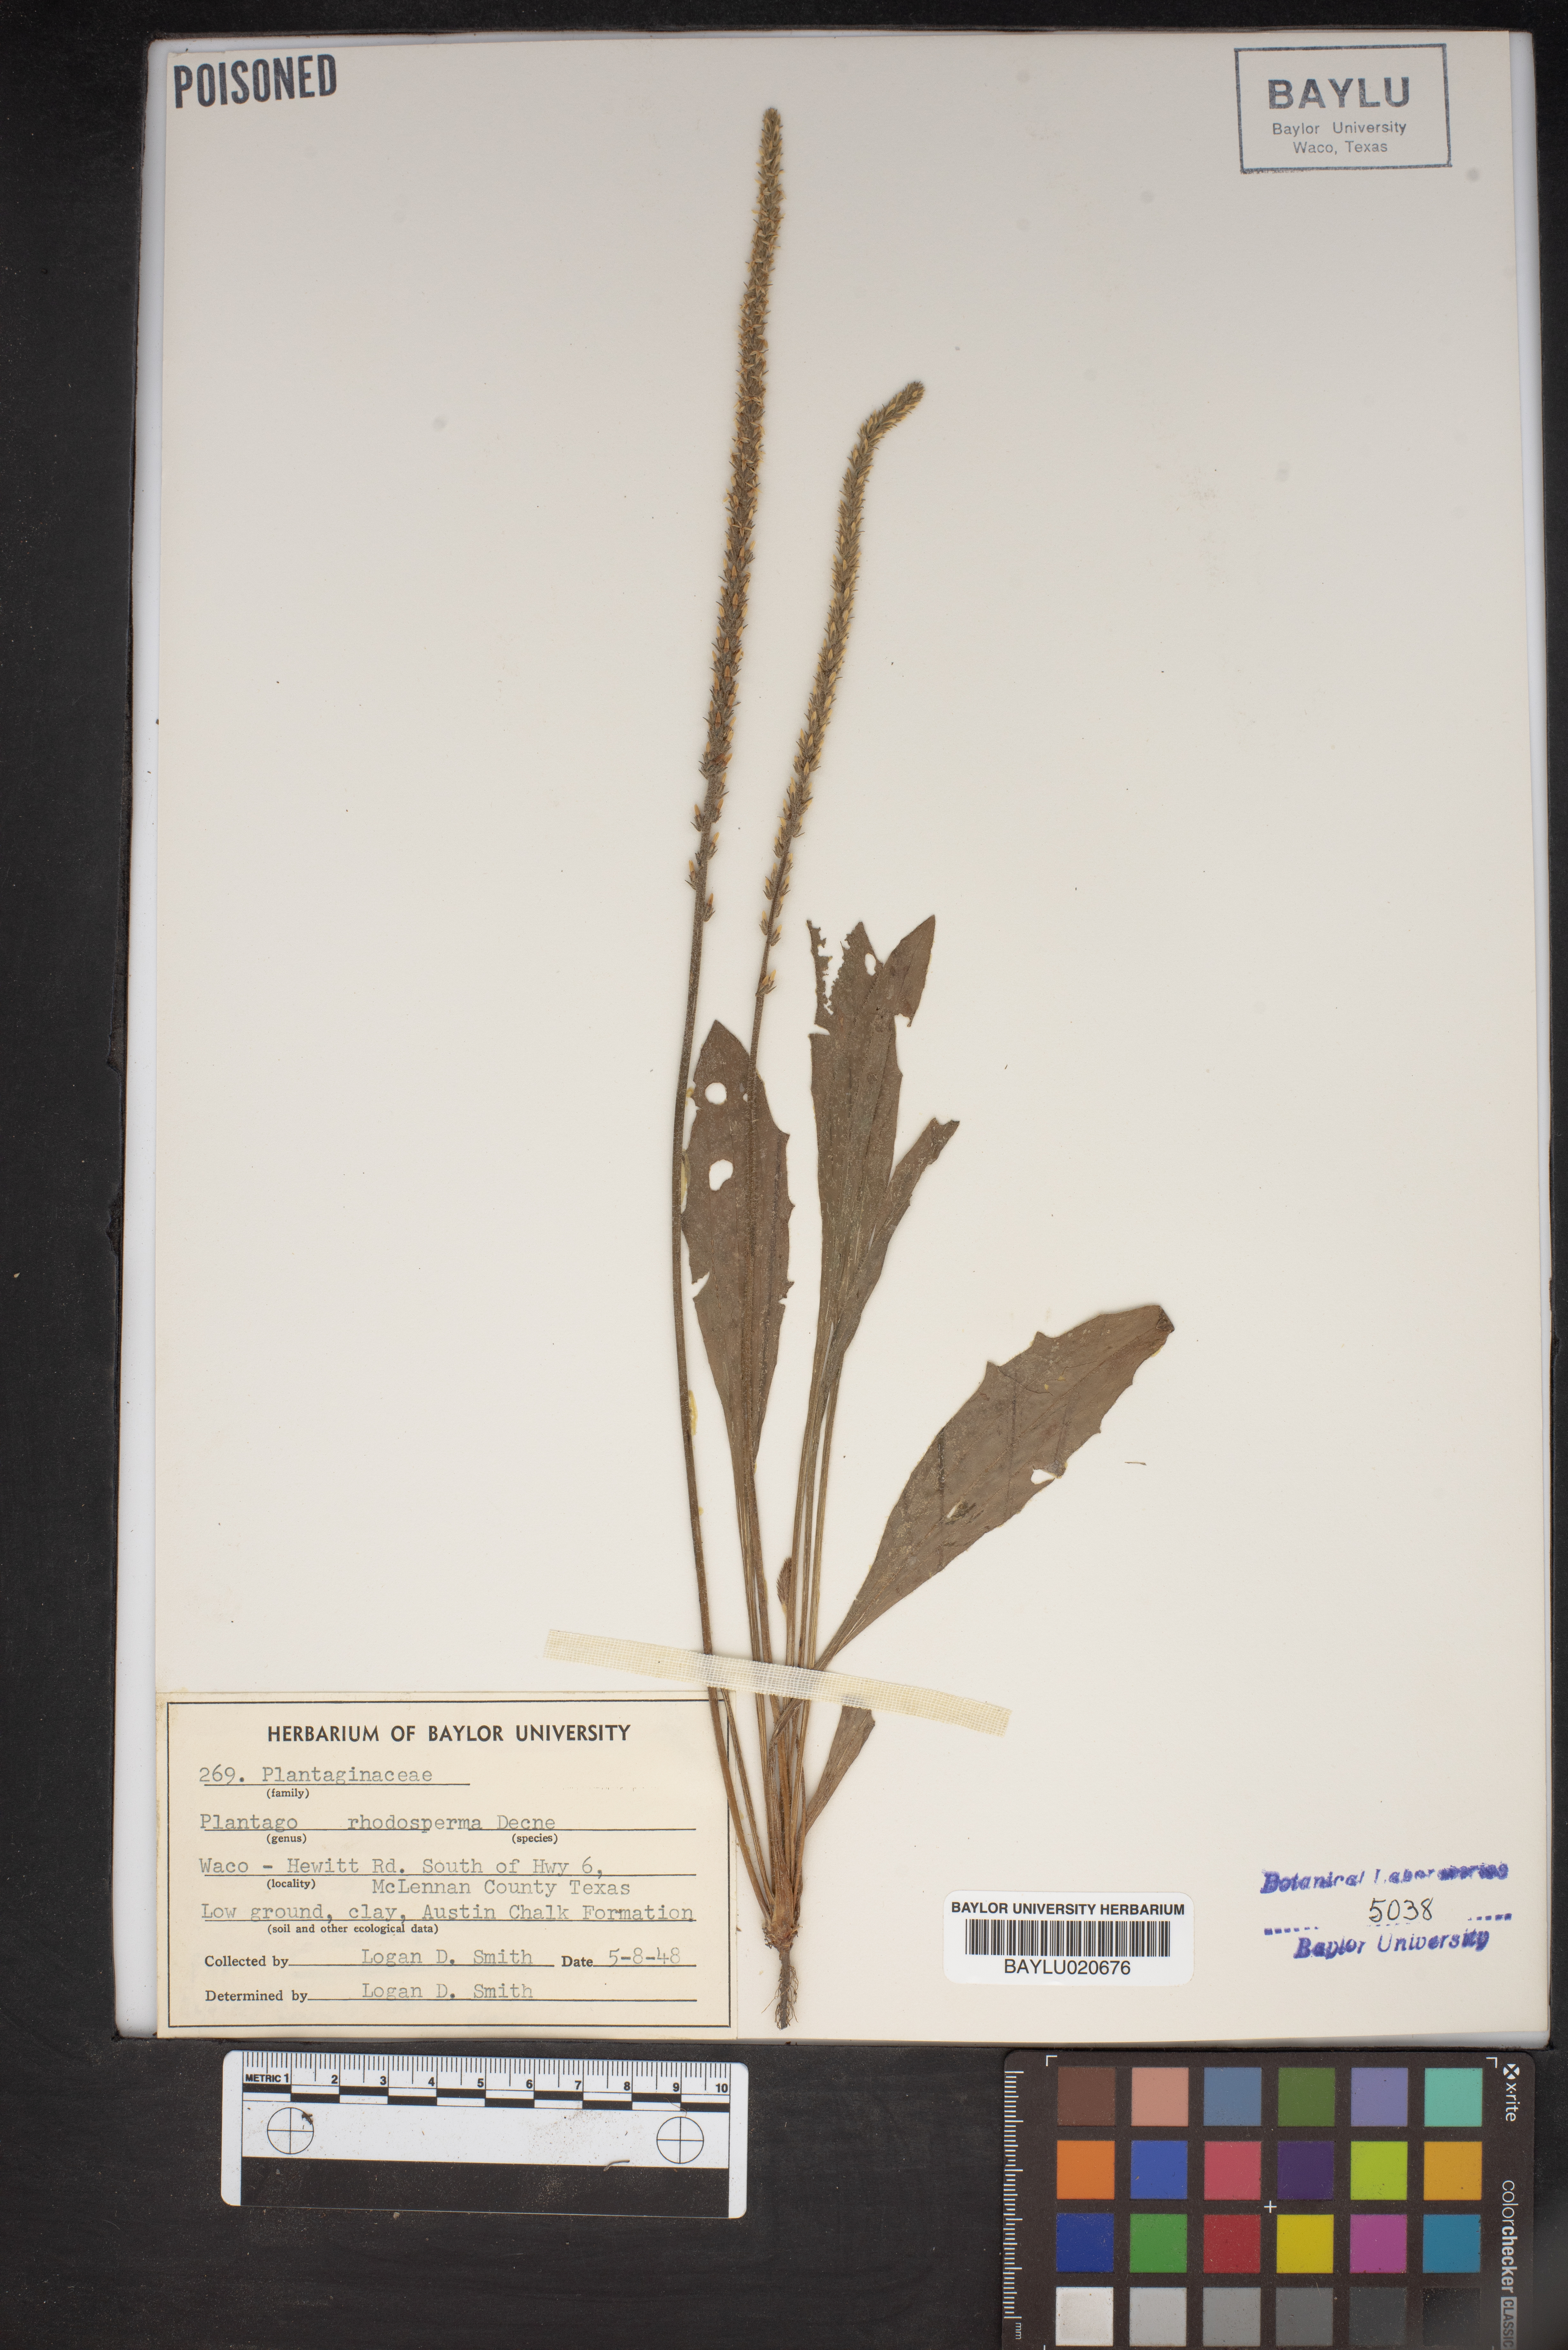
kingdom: Plantae
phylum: Tracheophyta
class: Magnoliopsida
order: Lamiales
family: Plantaginaceae
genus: Plantago
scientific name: Plantago rhodosperma
